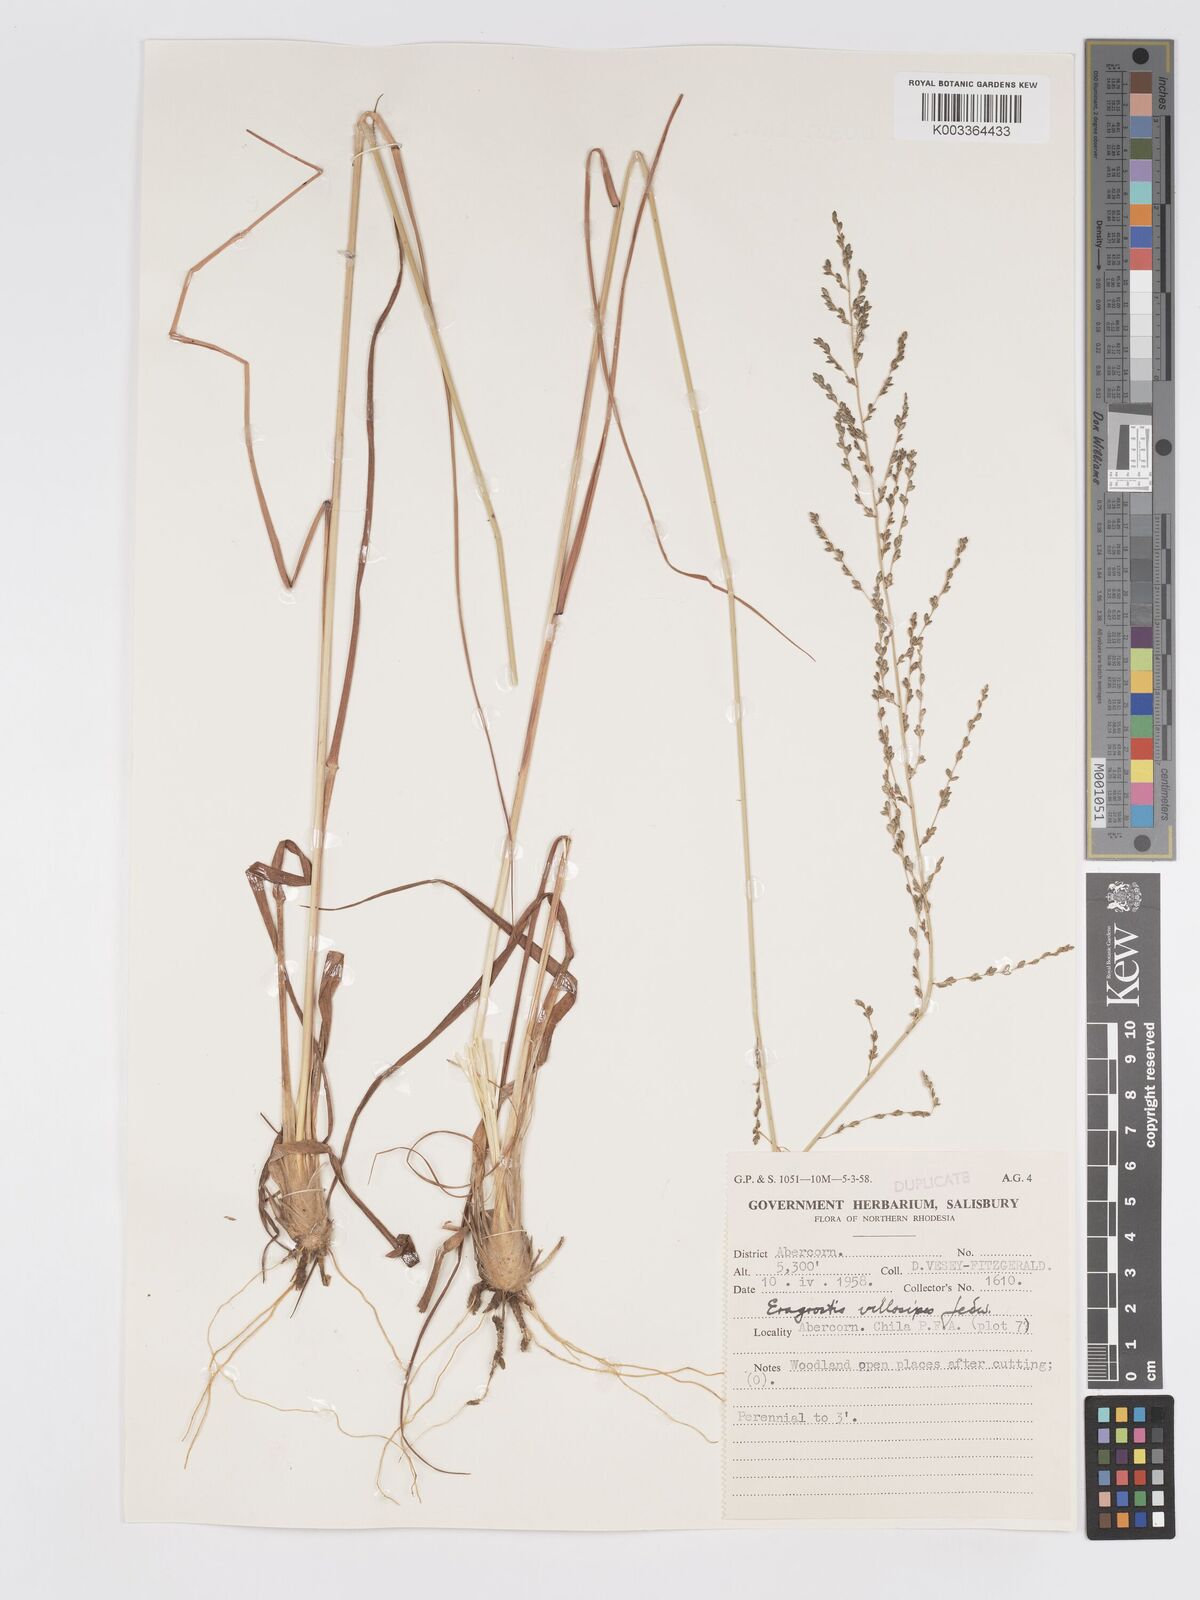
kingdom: Plantae
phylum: Tracheophyta
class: Liliopsida
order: Poales
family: Poaceae
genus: Eragrostis
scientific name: Eragrostis sclerantha
